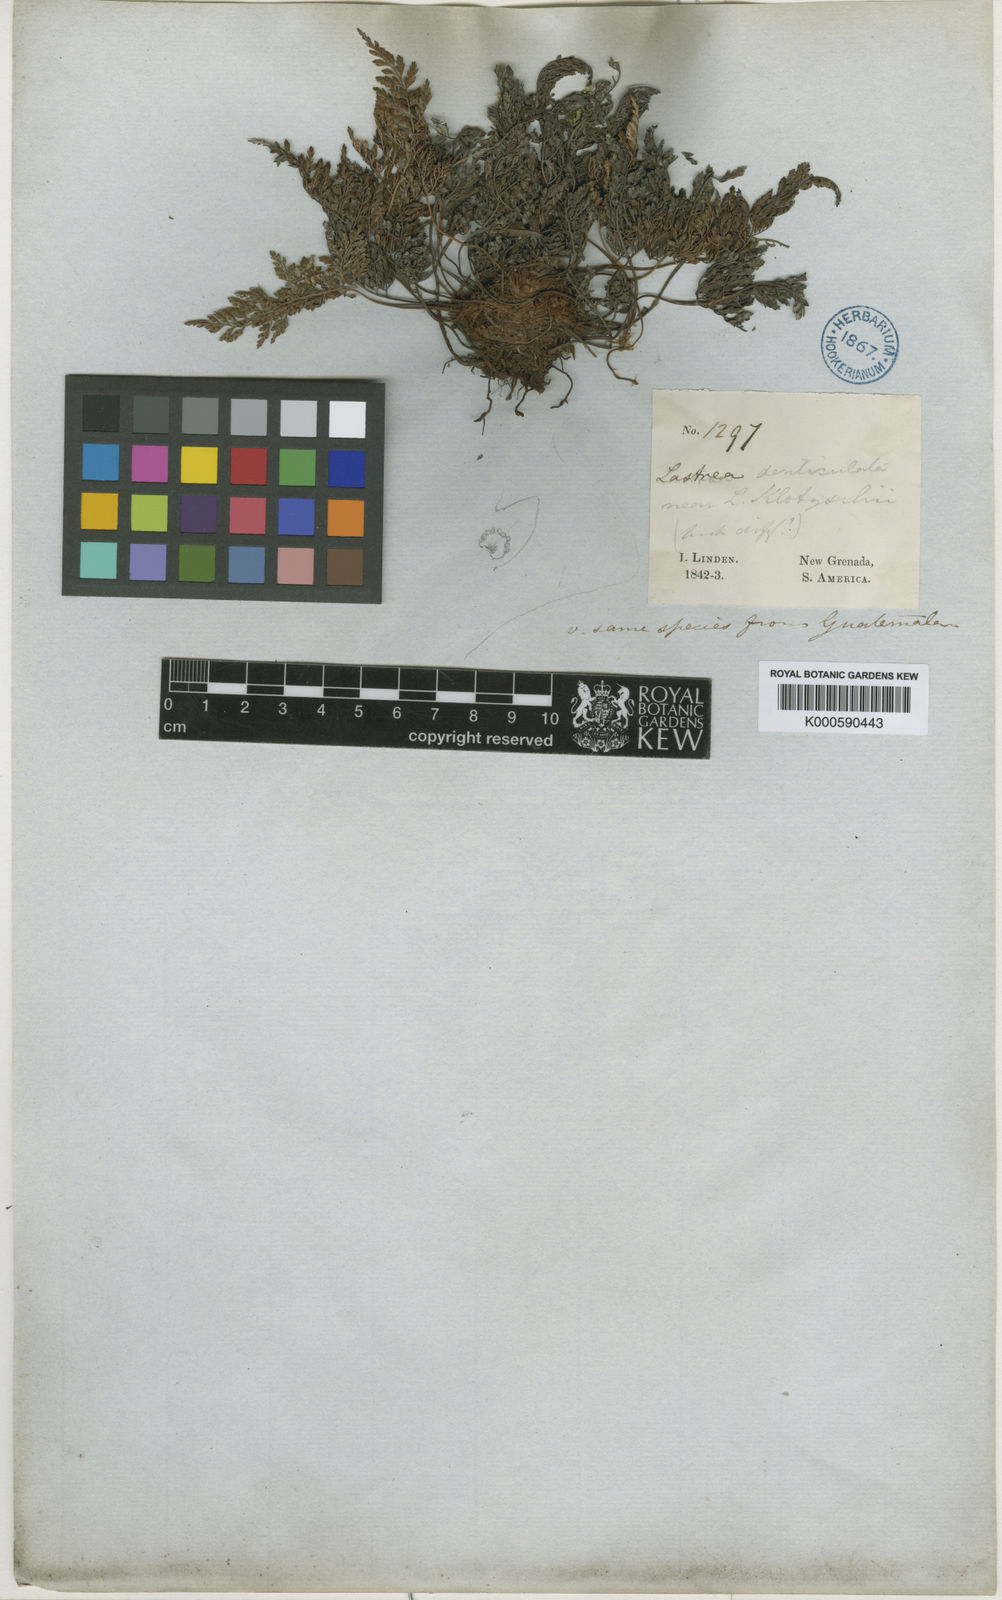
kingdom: Plantae
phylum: Tracheophyta
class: Polypodiopsida
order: Polypodiales
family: Dryopteridaceae
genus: Arachniodes
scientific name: Arachniodes denticulata
